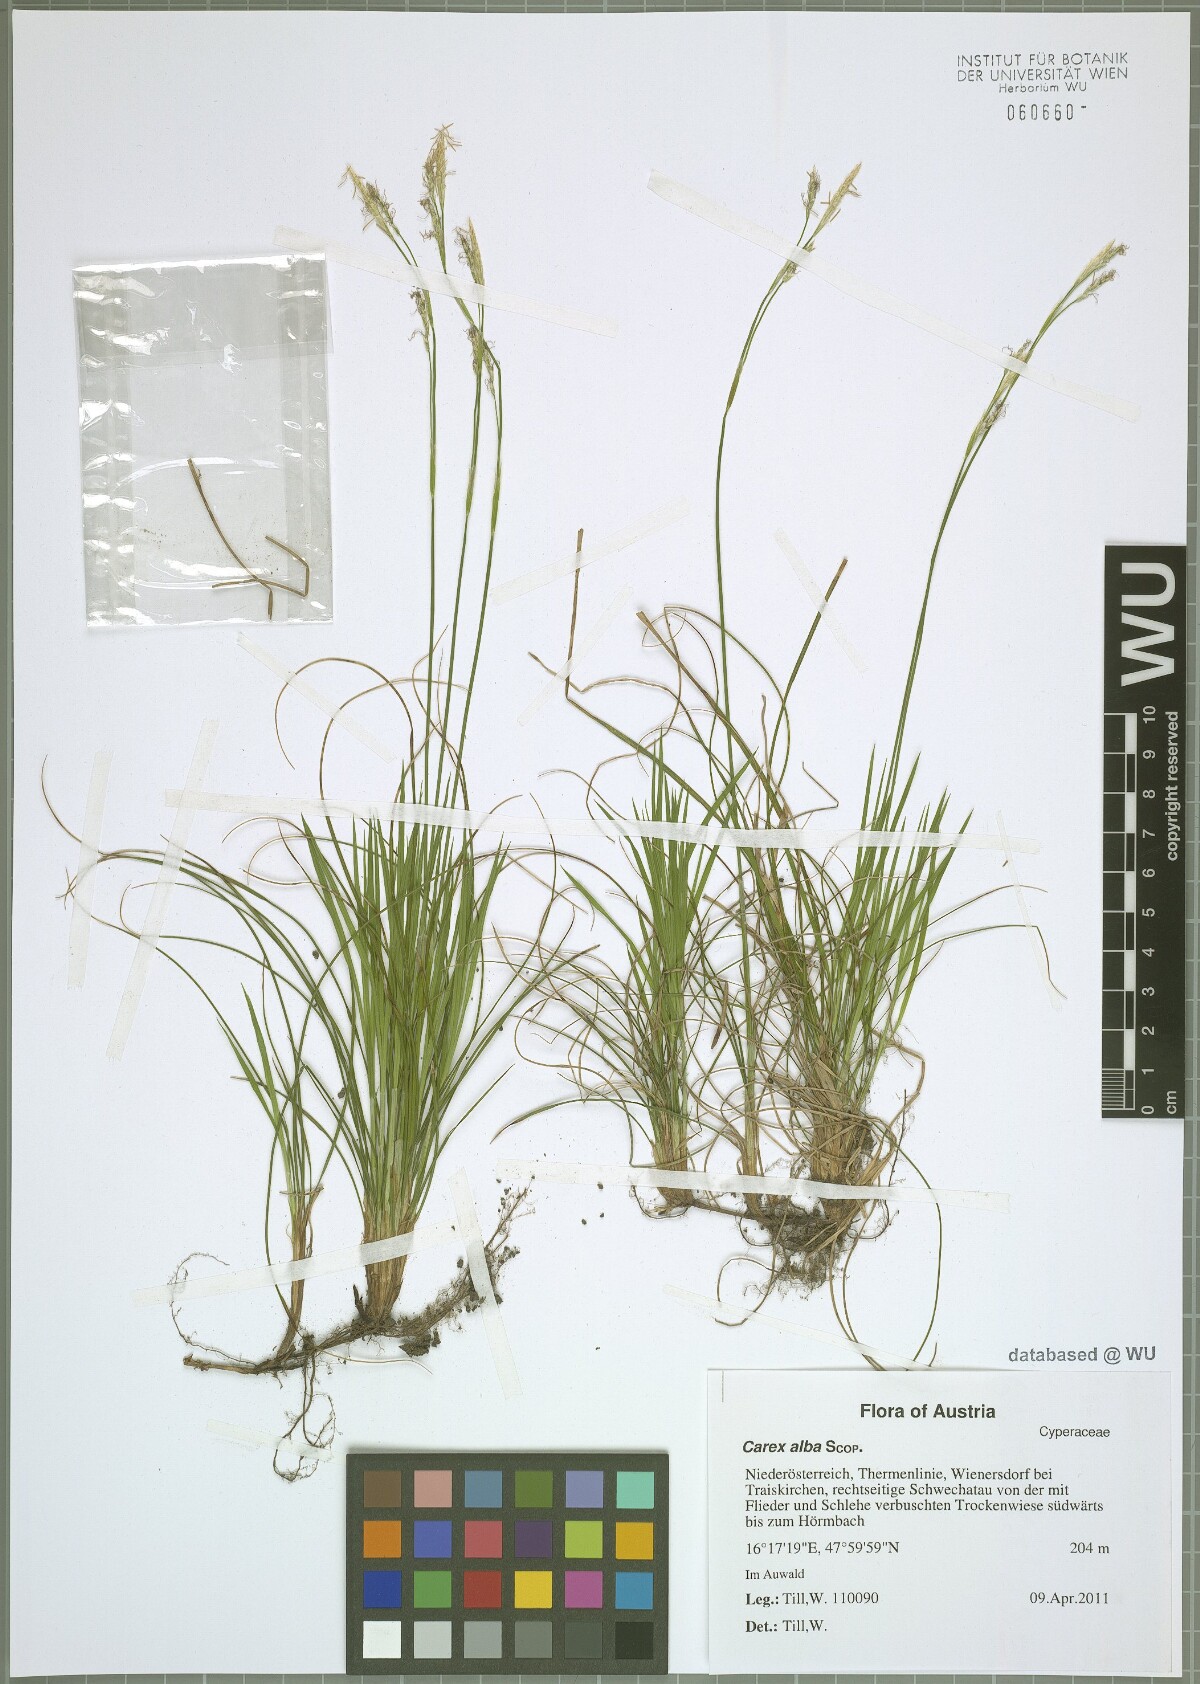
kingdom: Plantae
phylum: Tracheophyta
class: Liliopsida
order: Poales
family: Cyperaceae
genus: Carex
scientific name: Carex alba
